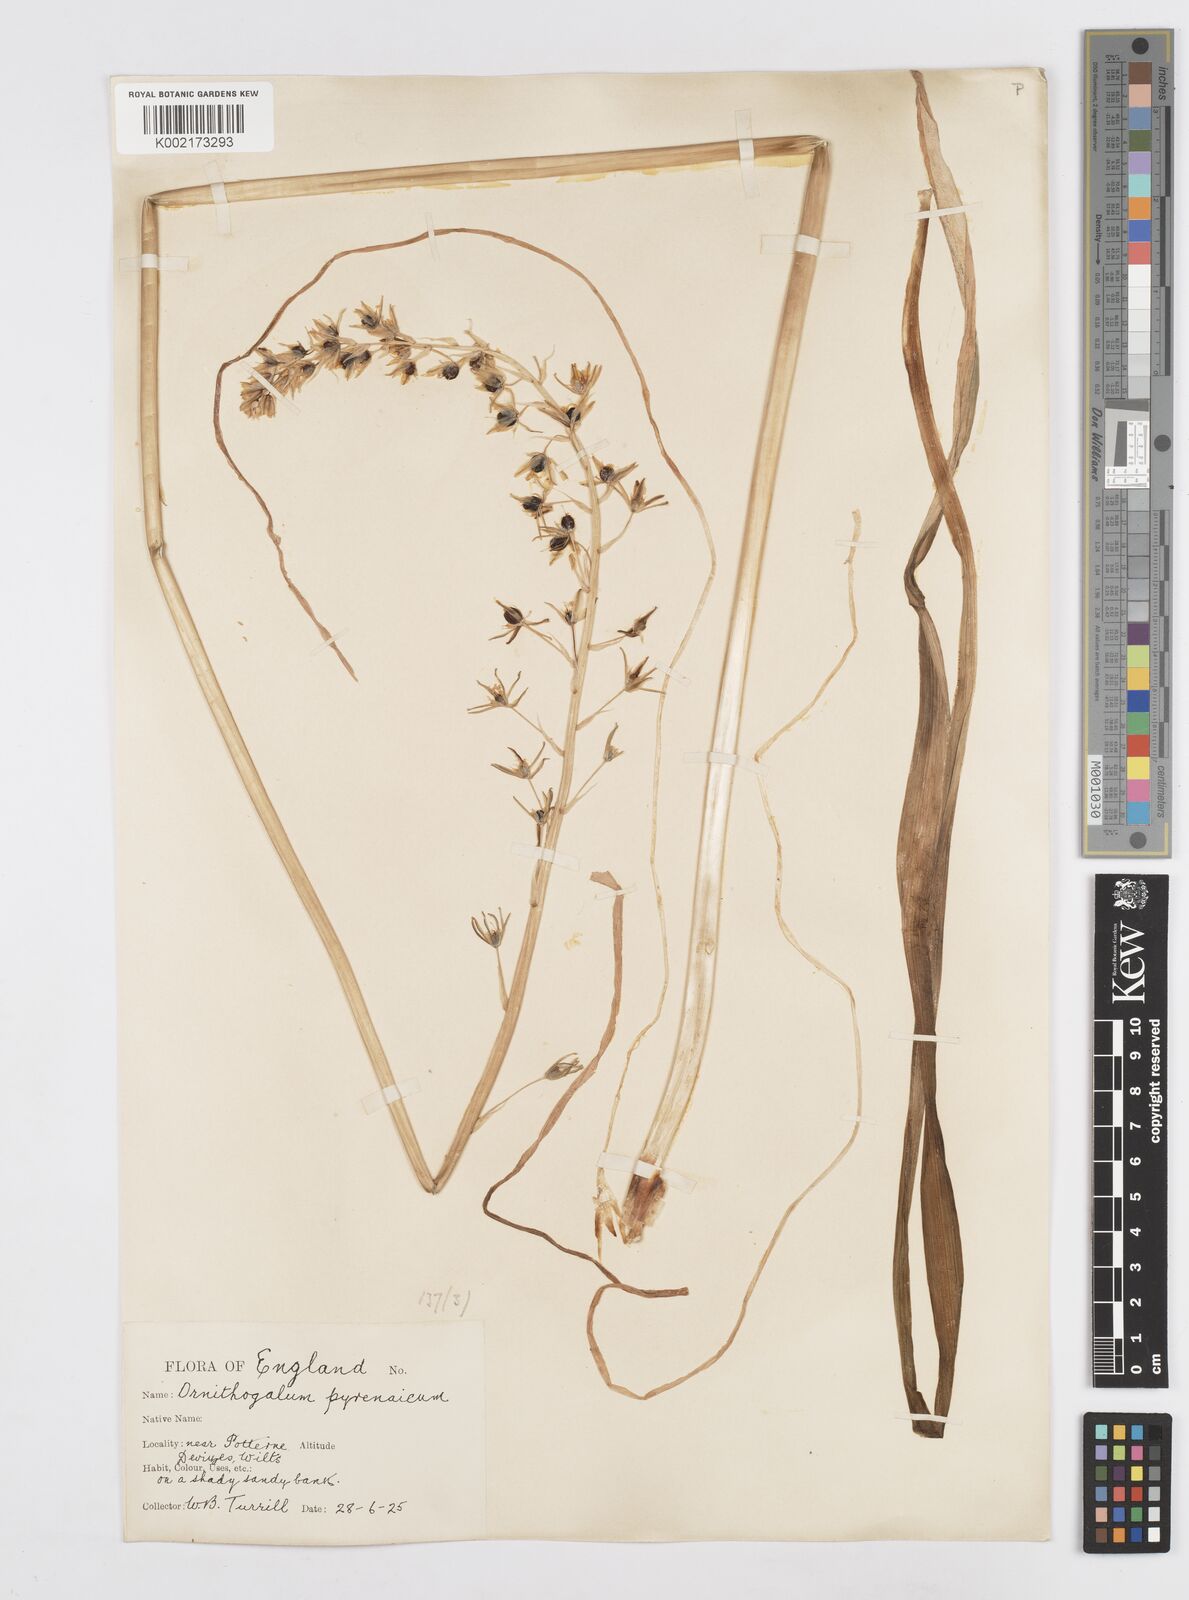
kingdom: Plantae
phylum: Tracheophyta
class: Liliopsida
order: Asparagales
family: Asparagaceae
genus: Ornithogalum
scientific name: Ornithogalum pyrenaicum
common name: Spiked star-of-bethlehem
